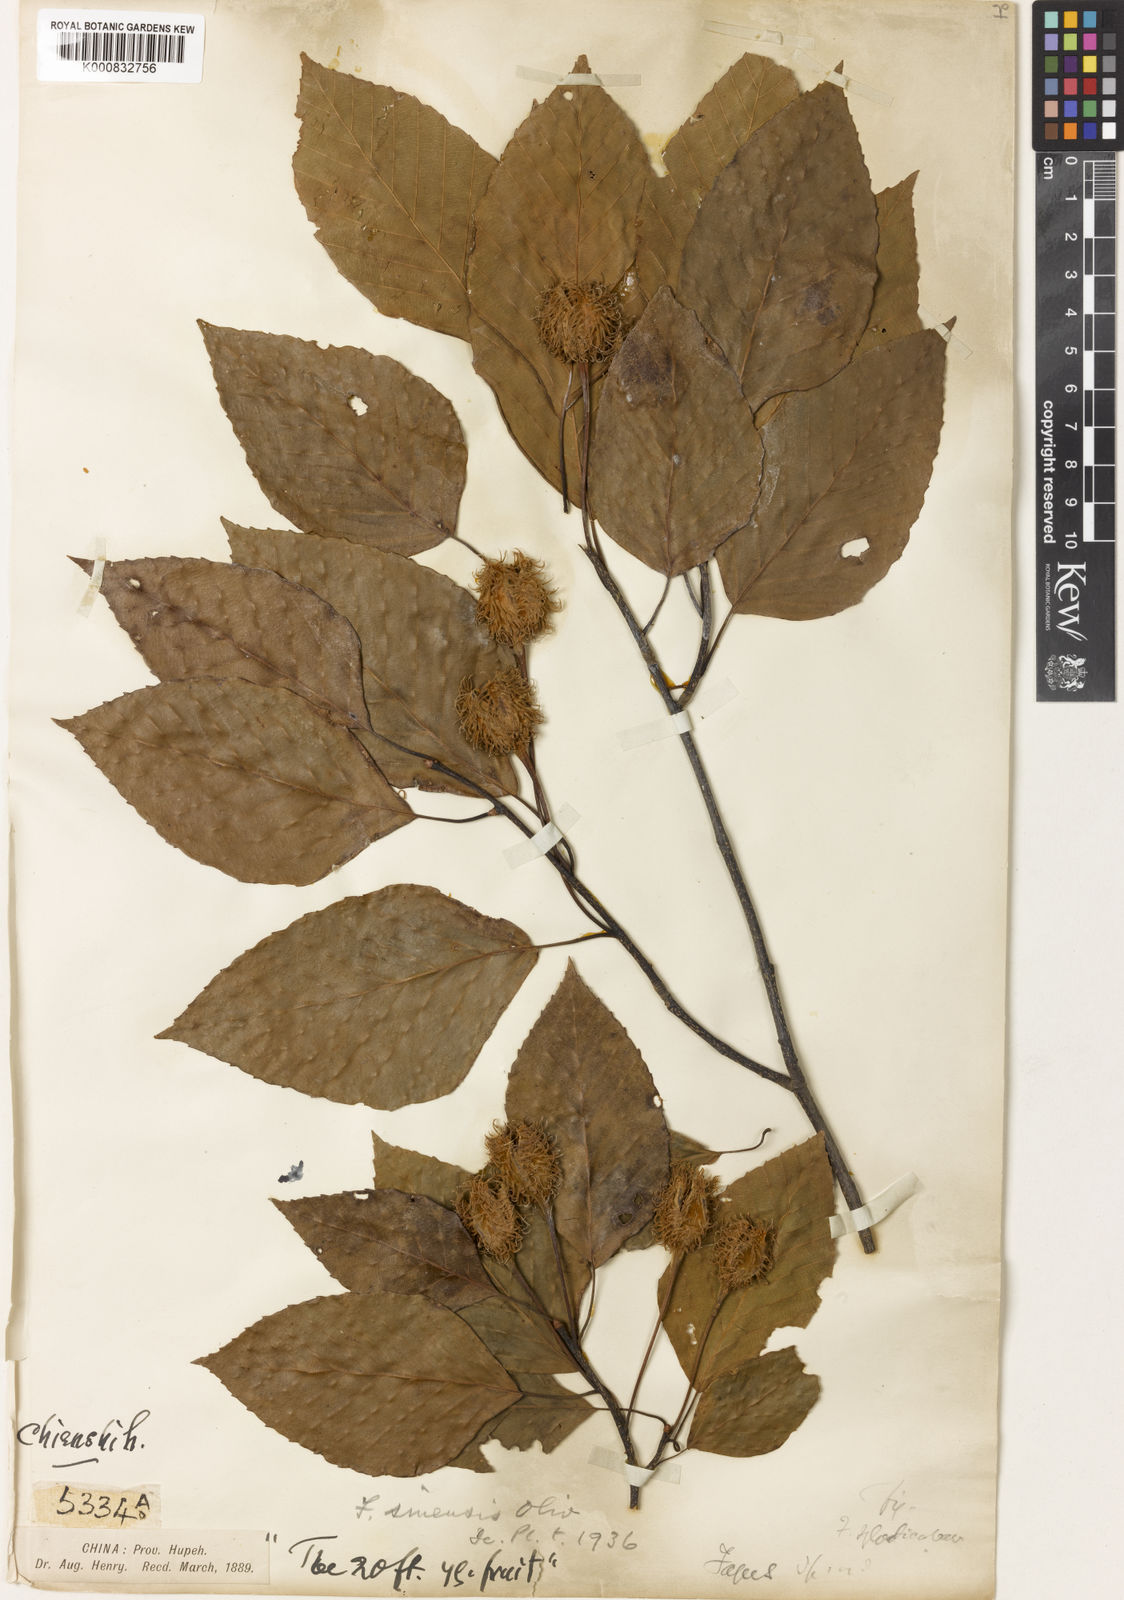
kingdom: Plantae
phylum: Tracheophyta
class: Magnoliopsida
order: Fagales
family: Fagaceae
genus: Fagus
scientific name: Fagus sinensis
